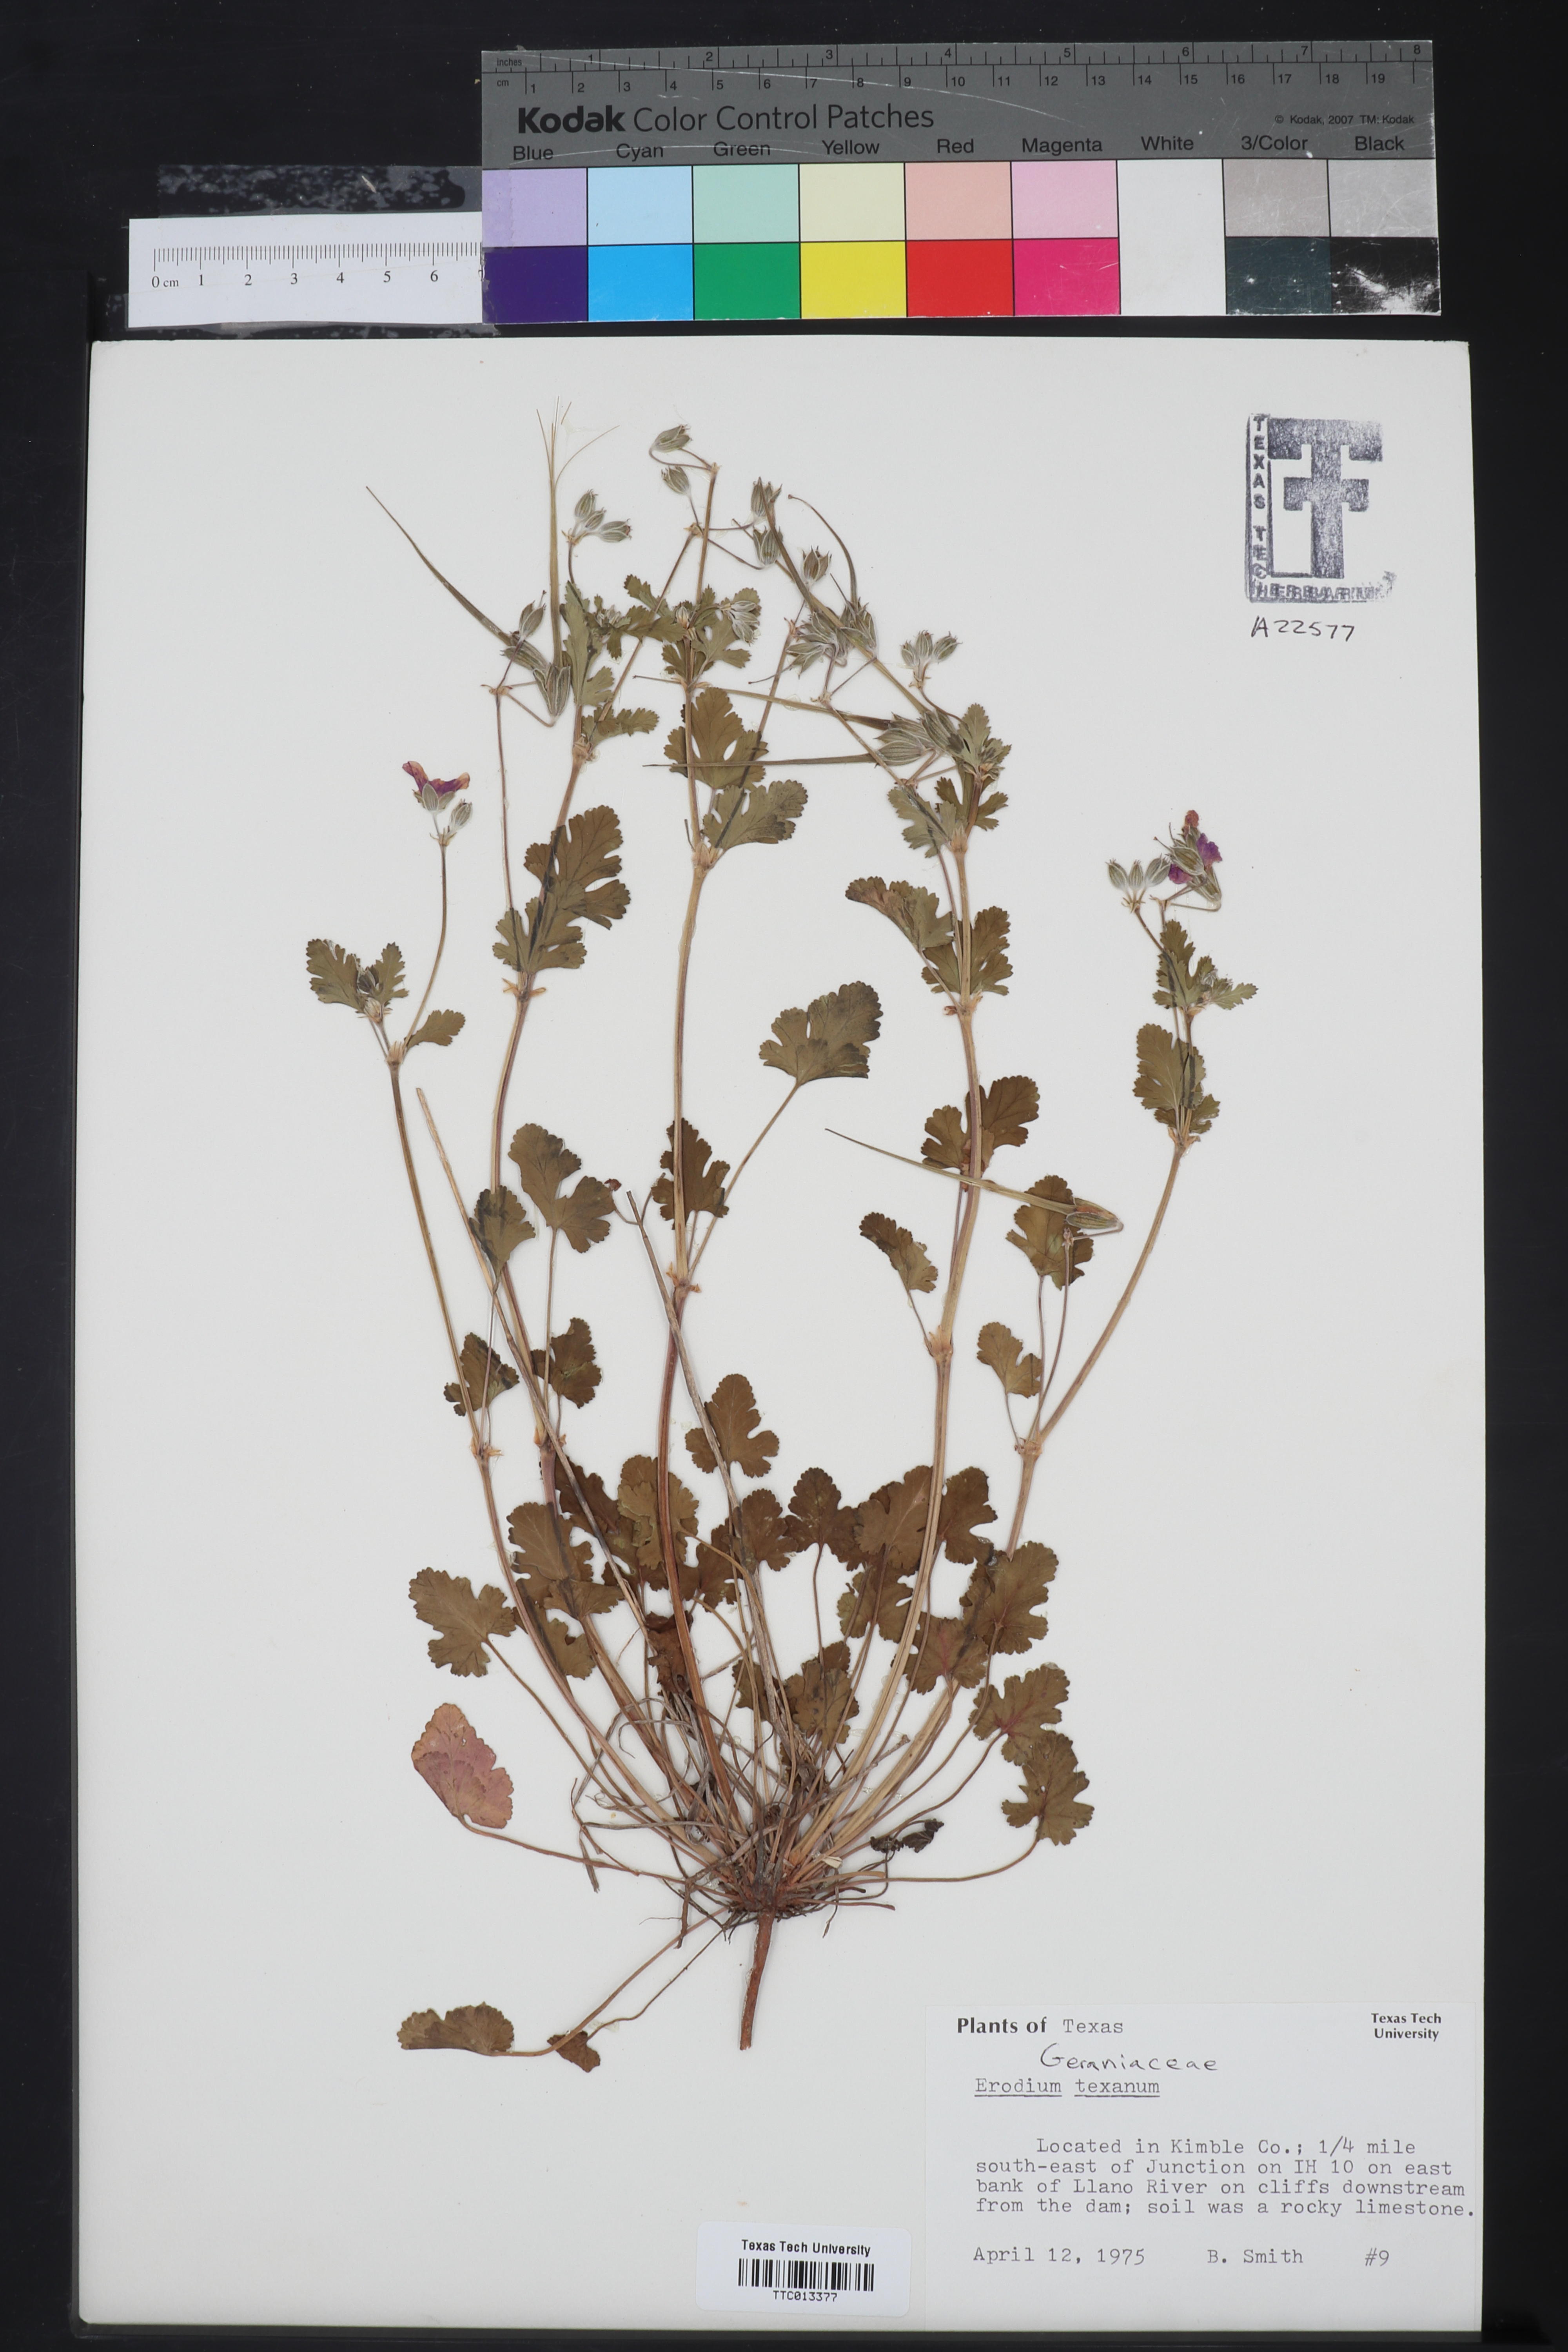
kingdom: Plantae
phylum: Tracheophyta
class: Magnoliopsida
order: Geraniales
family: Geraniaceae
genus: Erodium
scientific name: Erodium texanum
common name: Texas stork's-bill
